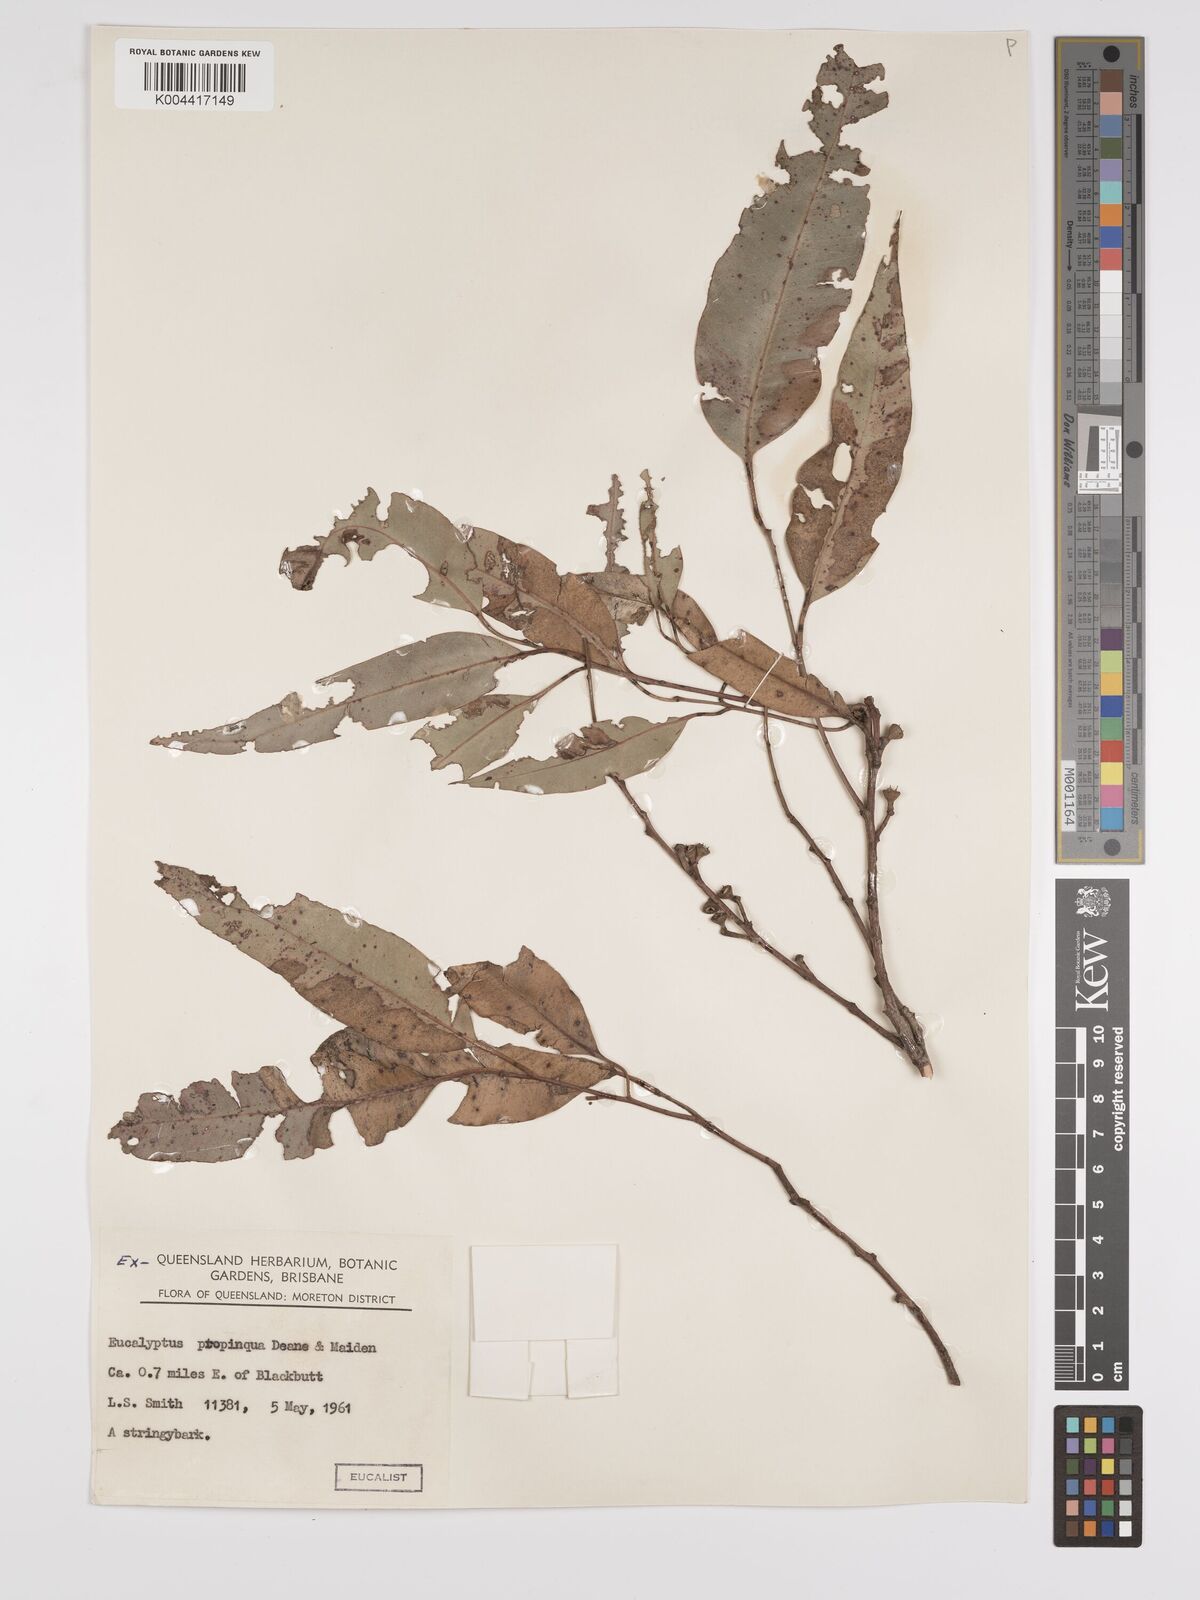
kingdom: Plantae
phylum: Tracheophyta
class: Magnoliopsida
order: Myrtales
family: Myrtaceae
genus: Eucalyptus
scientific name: Eucalyptus propinqua
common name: Grey-gum
